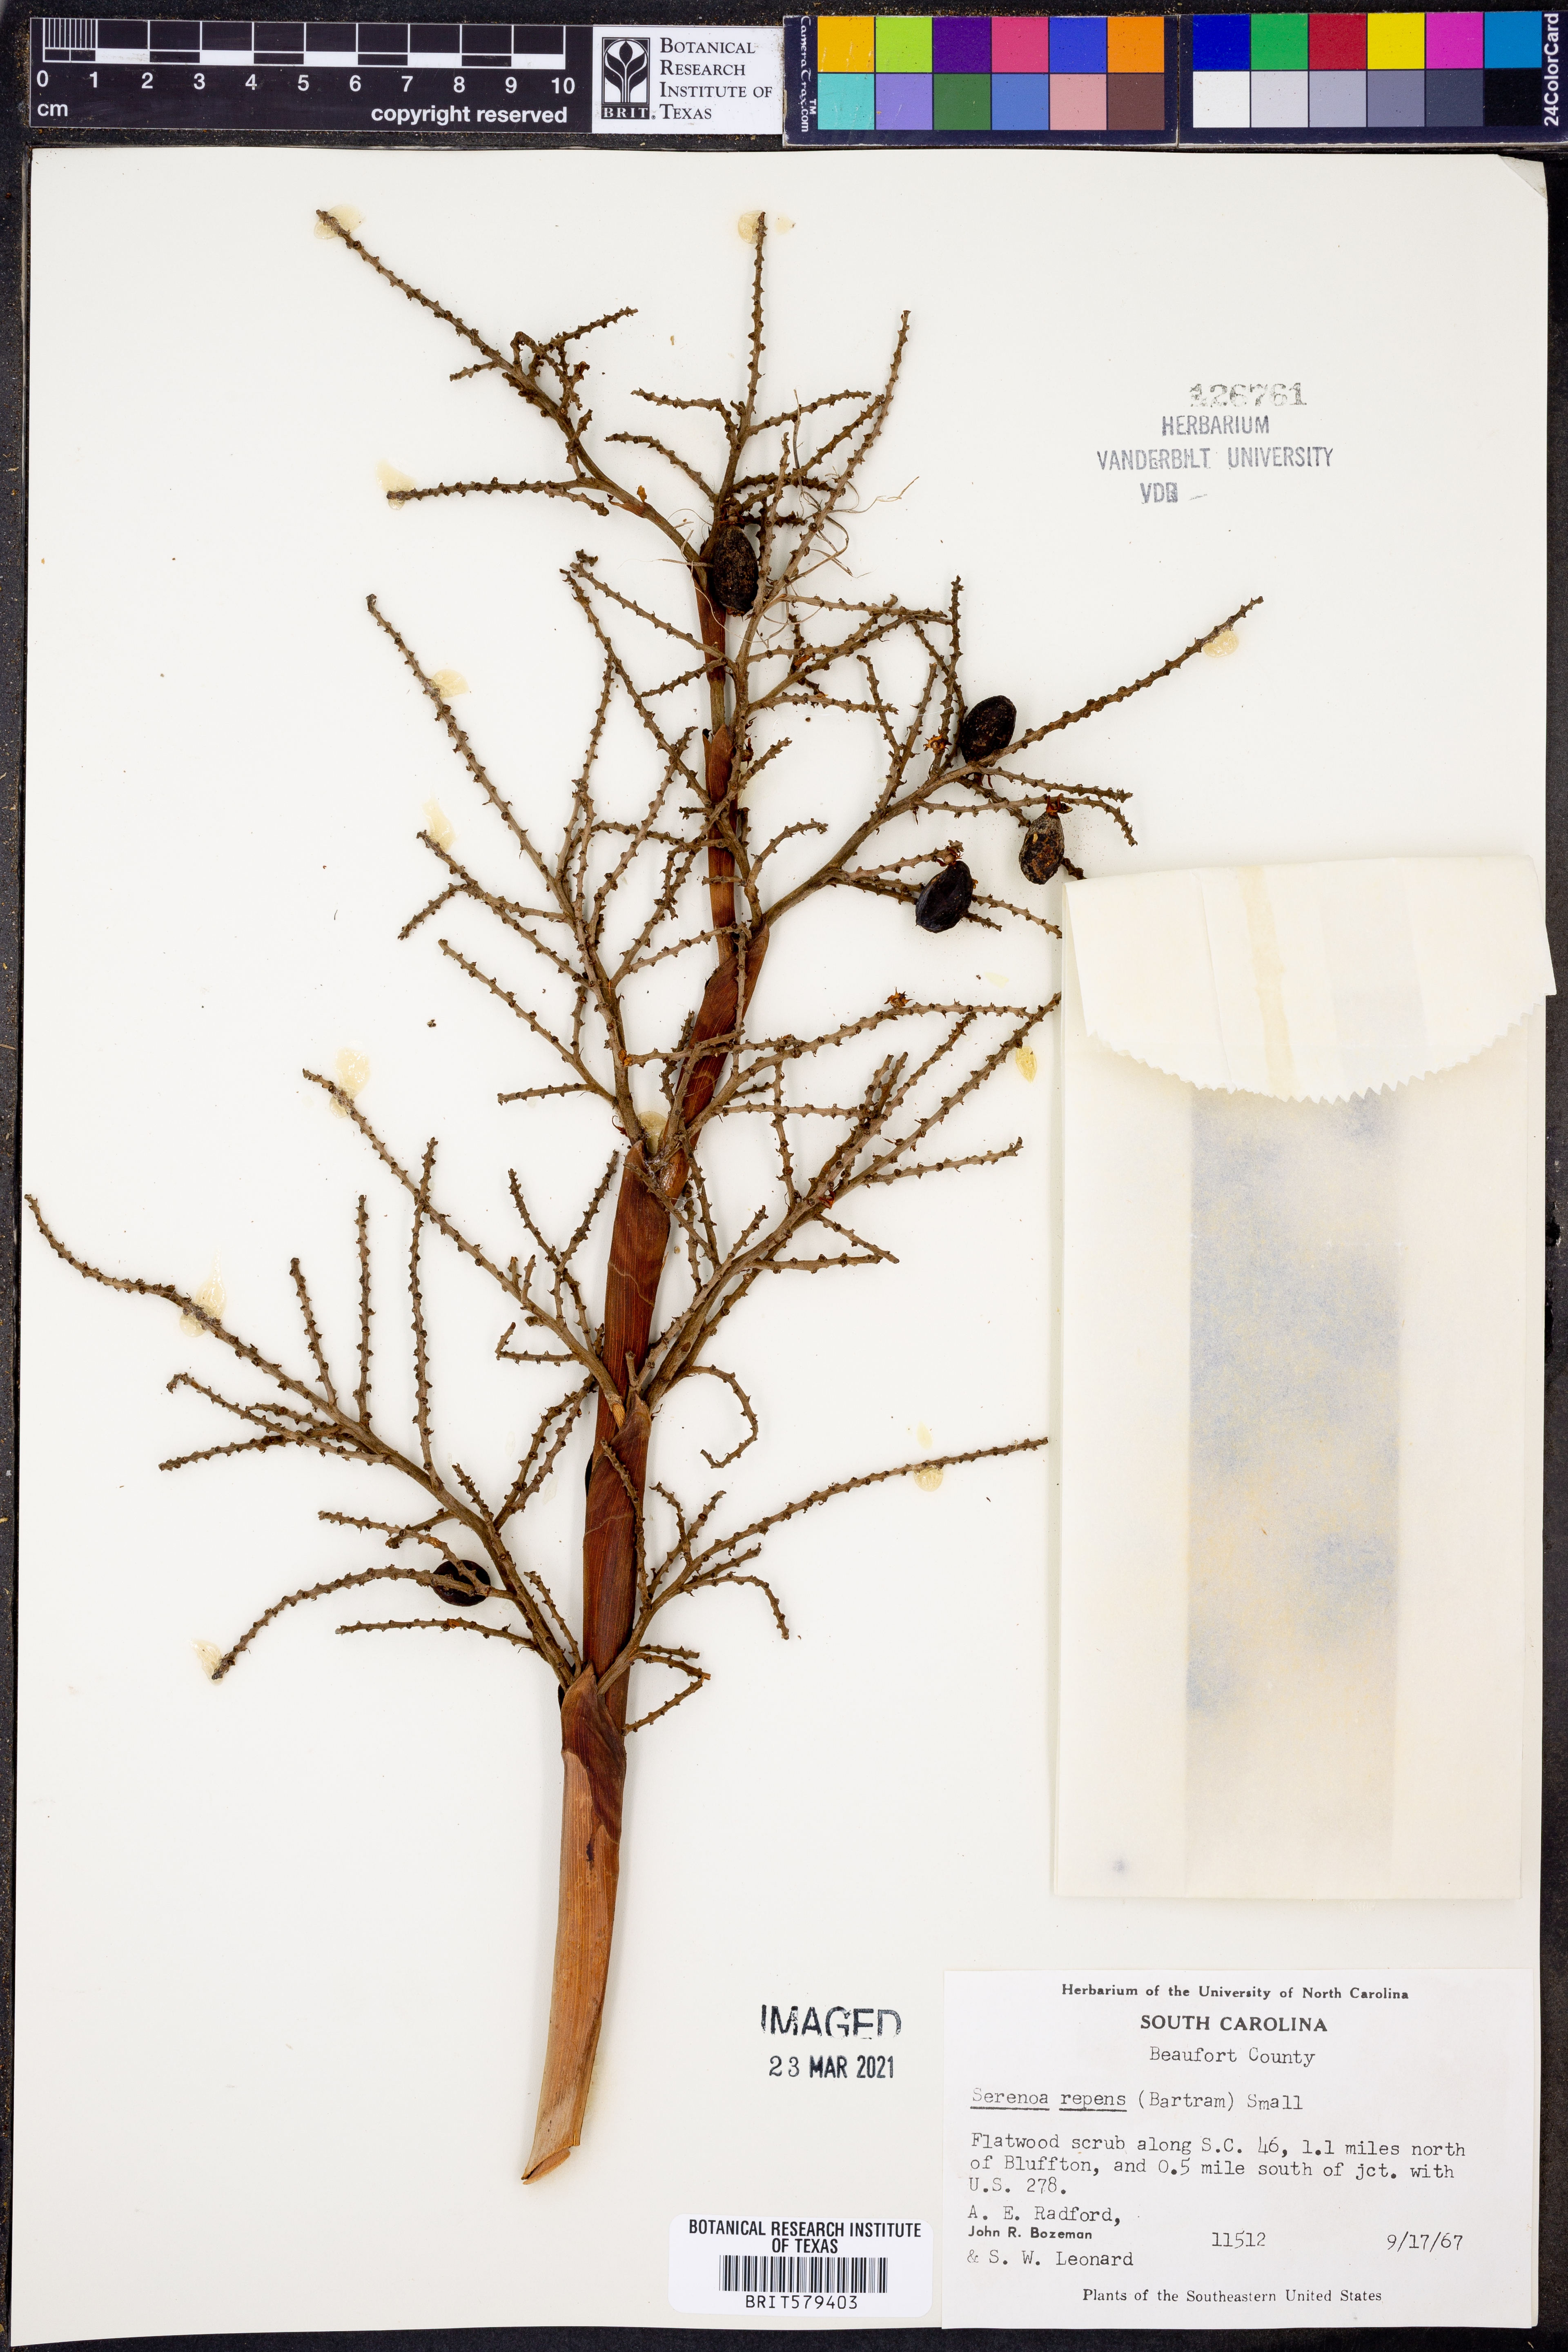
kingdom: Plantae
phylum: Tracheophyta
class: Liliopsida
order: Arecales
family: Arecaceae
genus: Serenoa
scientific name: Serenoa repens
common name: Saw-palmetto
